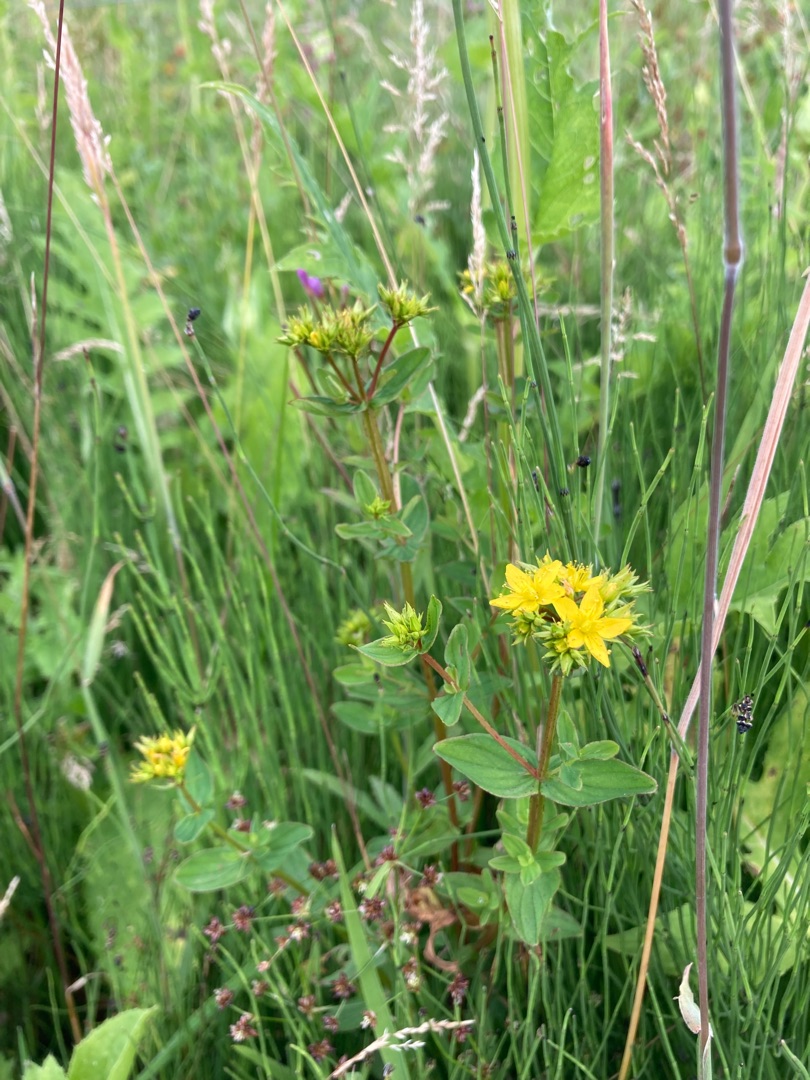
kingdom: Plantae
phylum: Tracheophyta
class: Magnoliopsida
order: Malpighiales
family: Hypericaceae
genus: Hypericum
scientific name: Hypericum tetrapterum
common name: Vinget perikon
